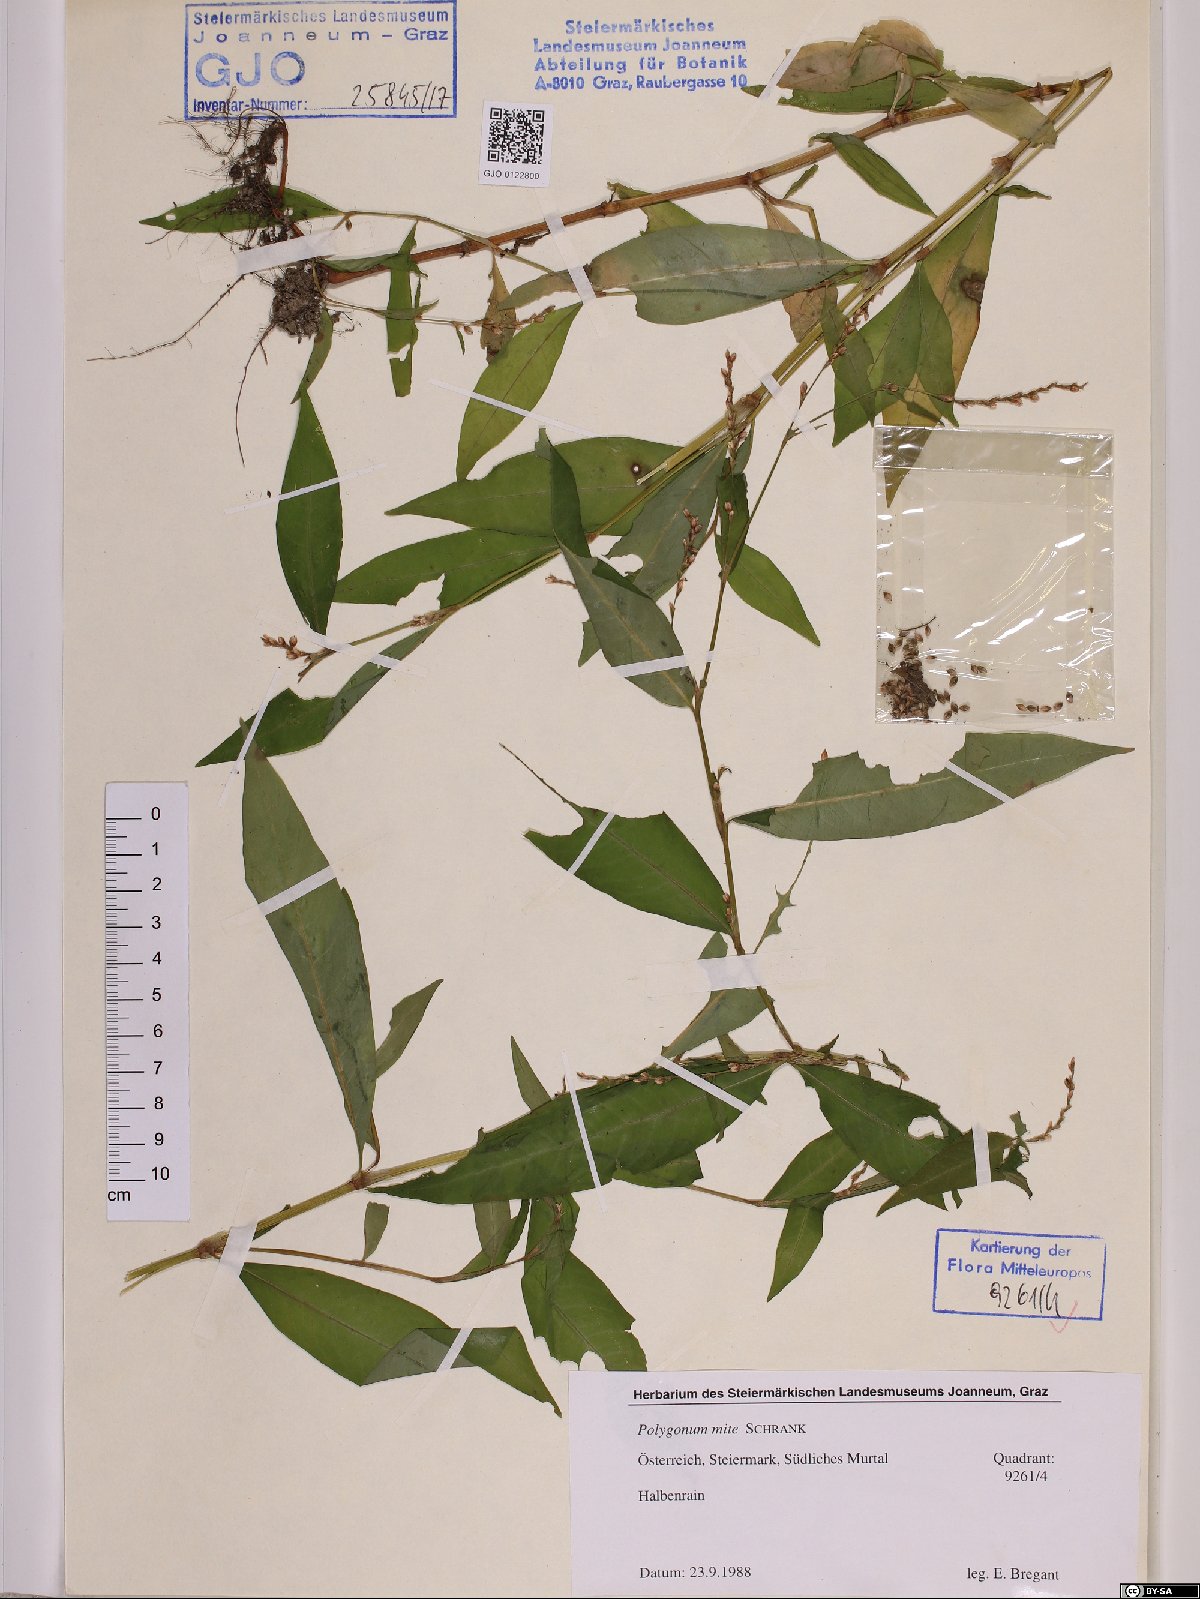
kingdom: Plantae
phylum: Tracheophyta
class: Magnoliopsida
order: Caryophyllales
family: Polygonaceae
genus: Persicaria
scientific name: Persicaria mitis
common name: Tasteless water-pepper
